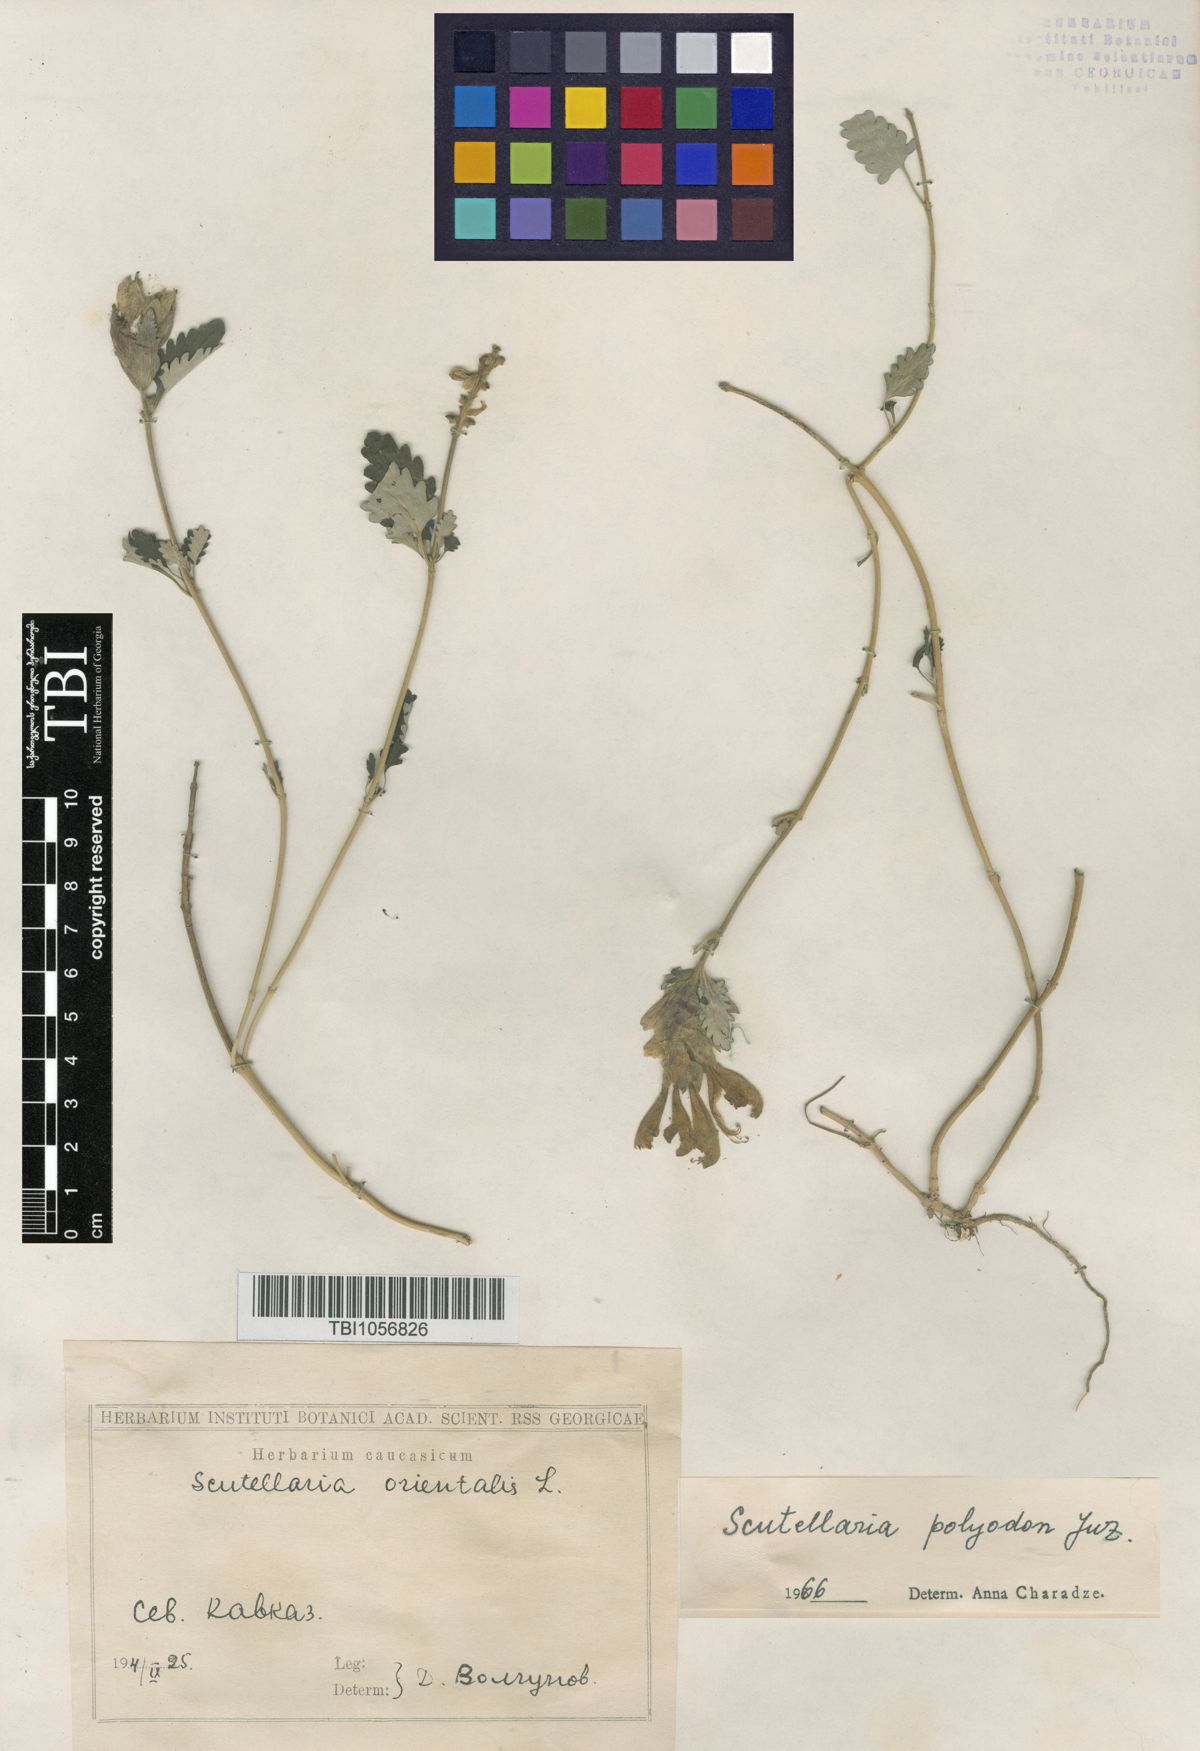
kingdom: Plantae
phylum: Tracheophyta
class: Magnoliopsida
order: Lamiales
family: Lamiaceae
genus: Scutellaria
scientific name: Scutellaria caucasica
